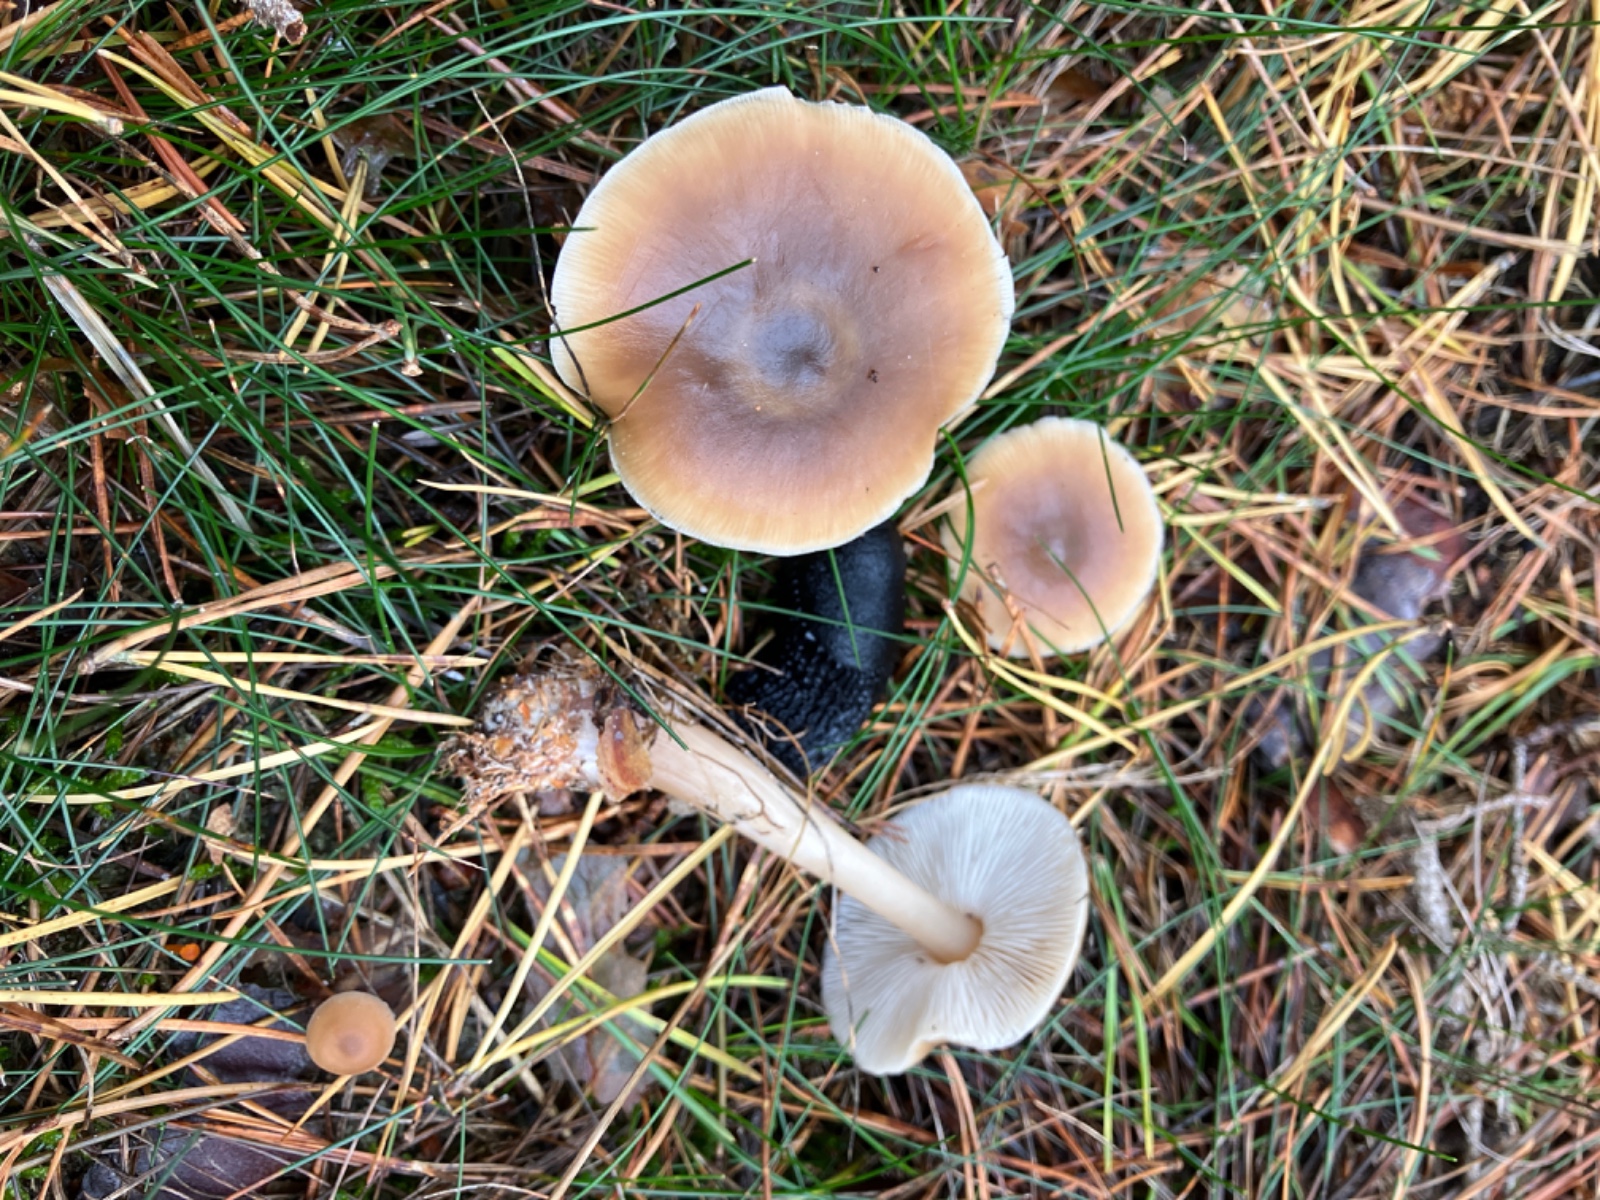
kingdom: Fungi
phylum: Basidiomycota
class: Agaricomycetes
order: Agaricales
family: Omphalotaceae
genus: Rhodocollybia
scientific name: Rhodocollybia asema
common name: horngrå fladhat
